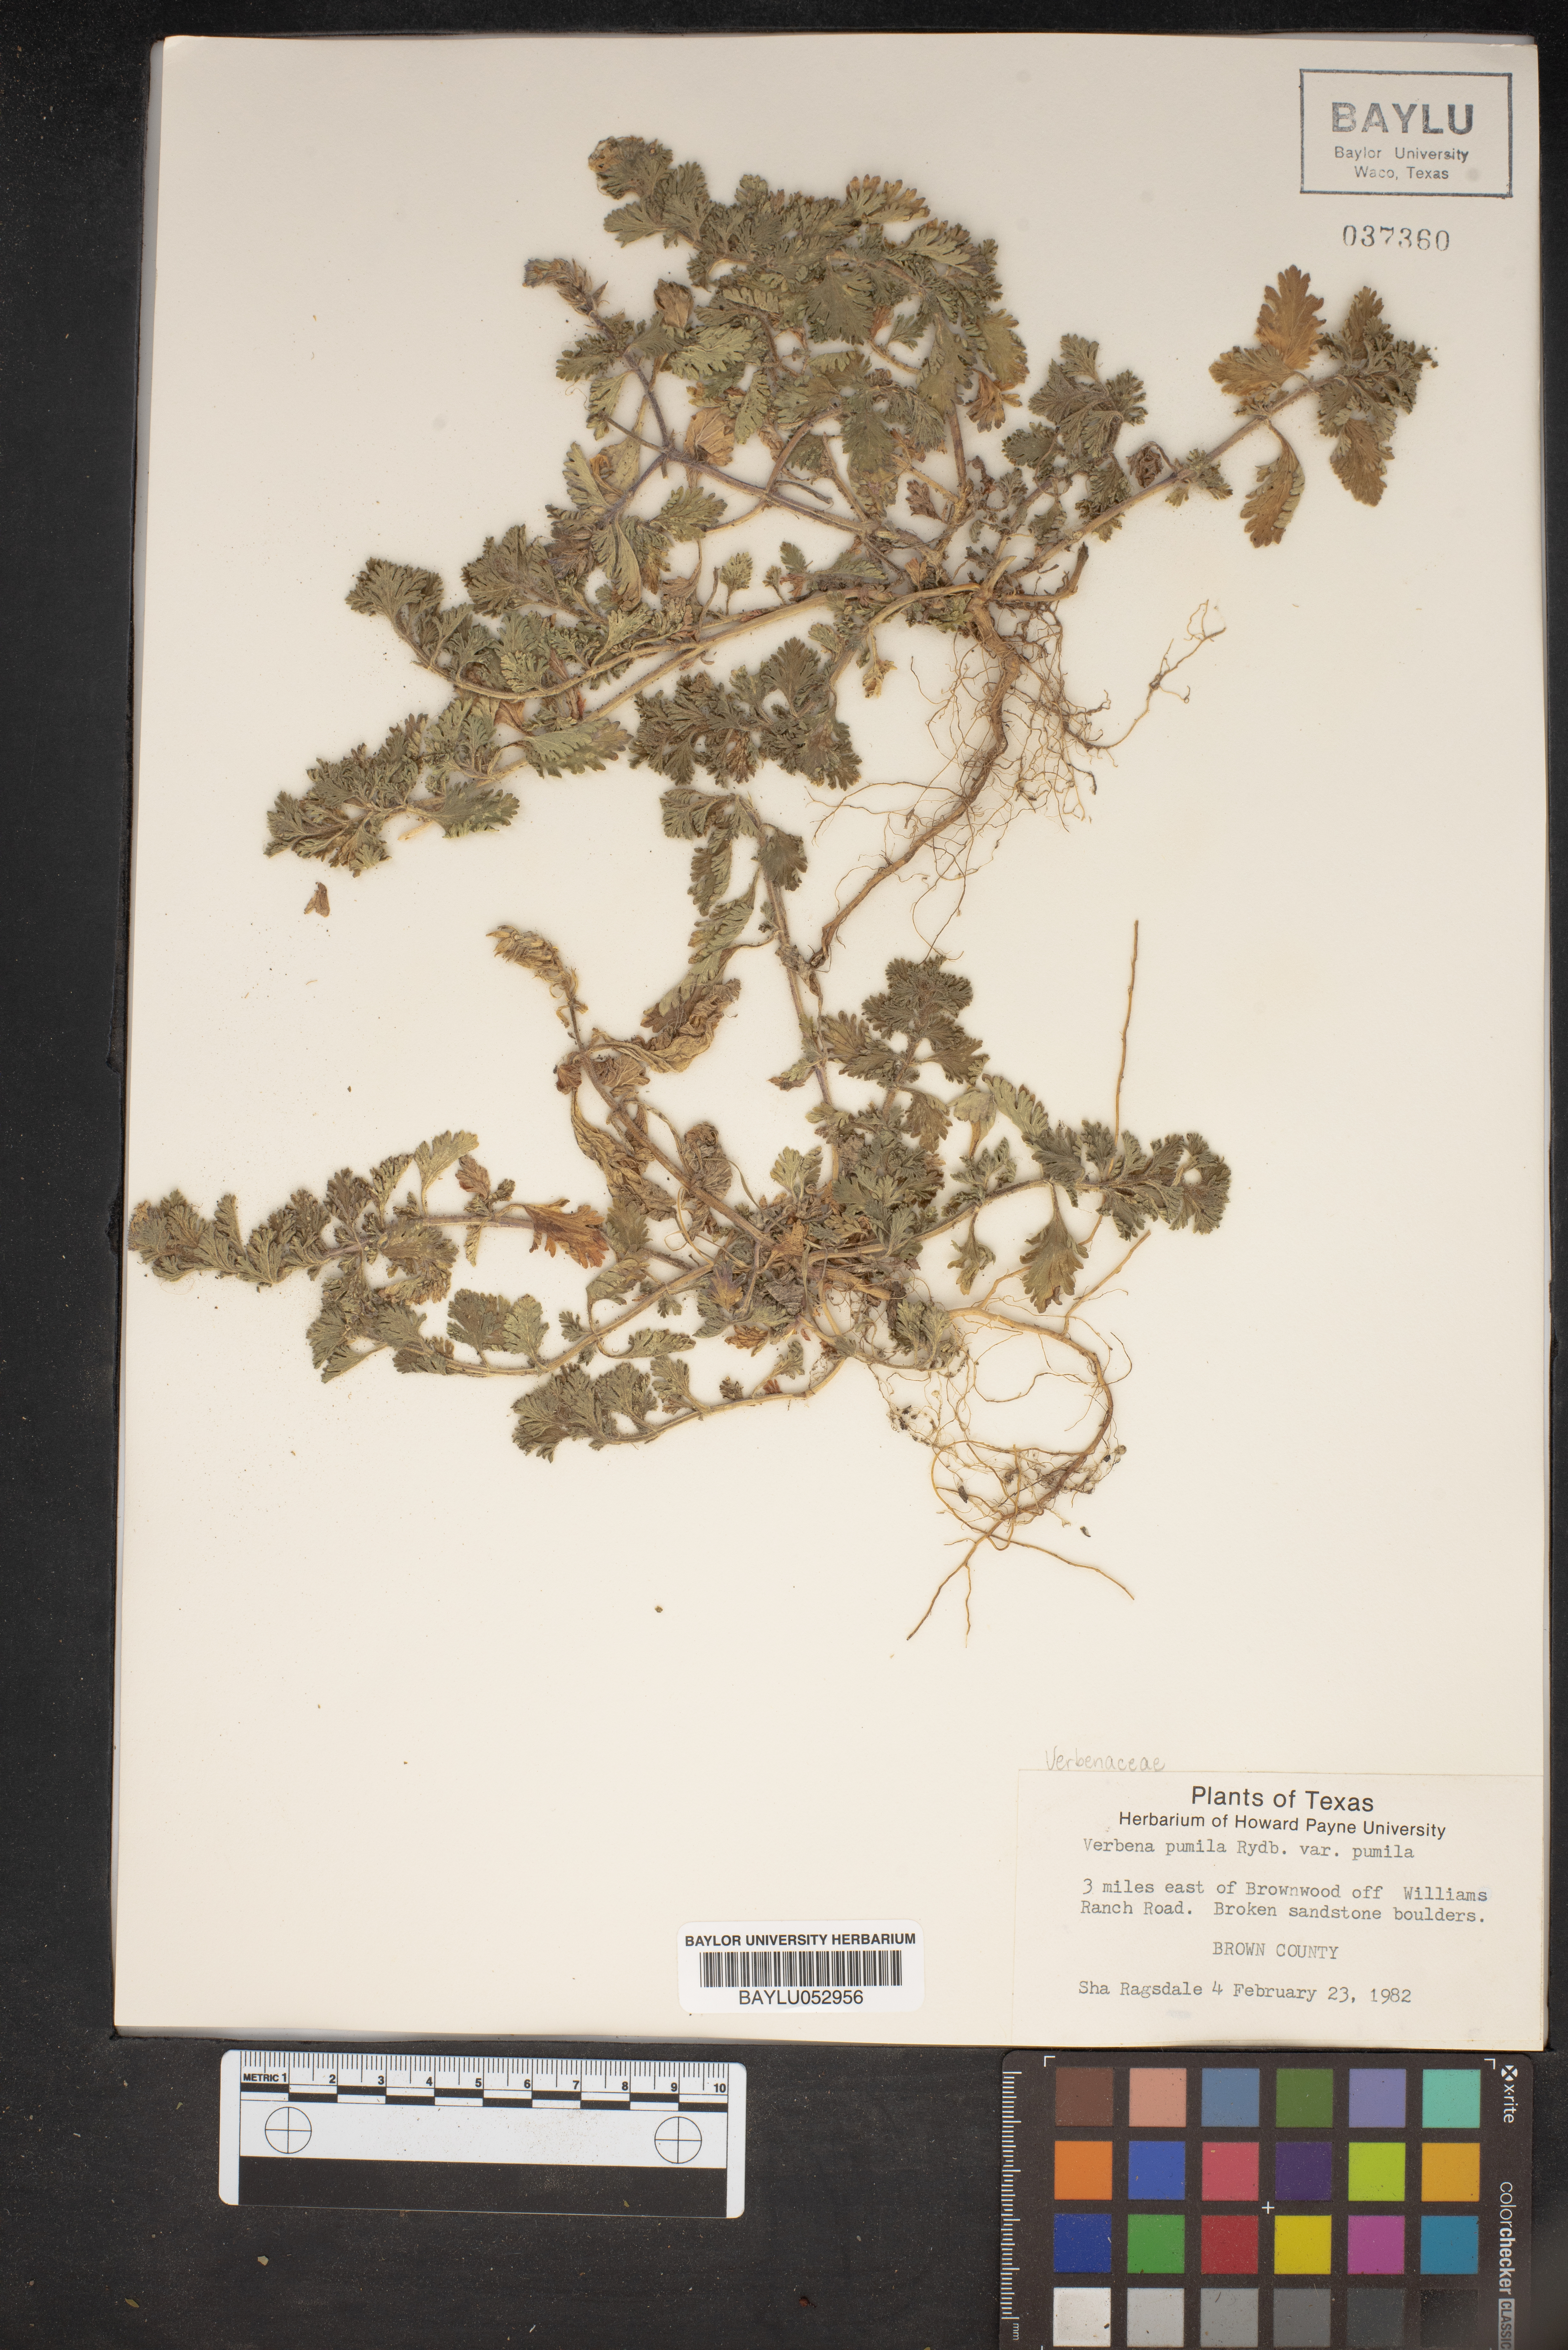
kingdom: Plantae
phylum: Tracheophyta
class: Magnoliopsida
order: Lamiales
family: Verbenaceae
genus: Verbena
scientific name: Verbena pumila
